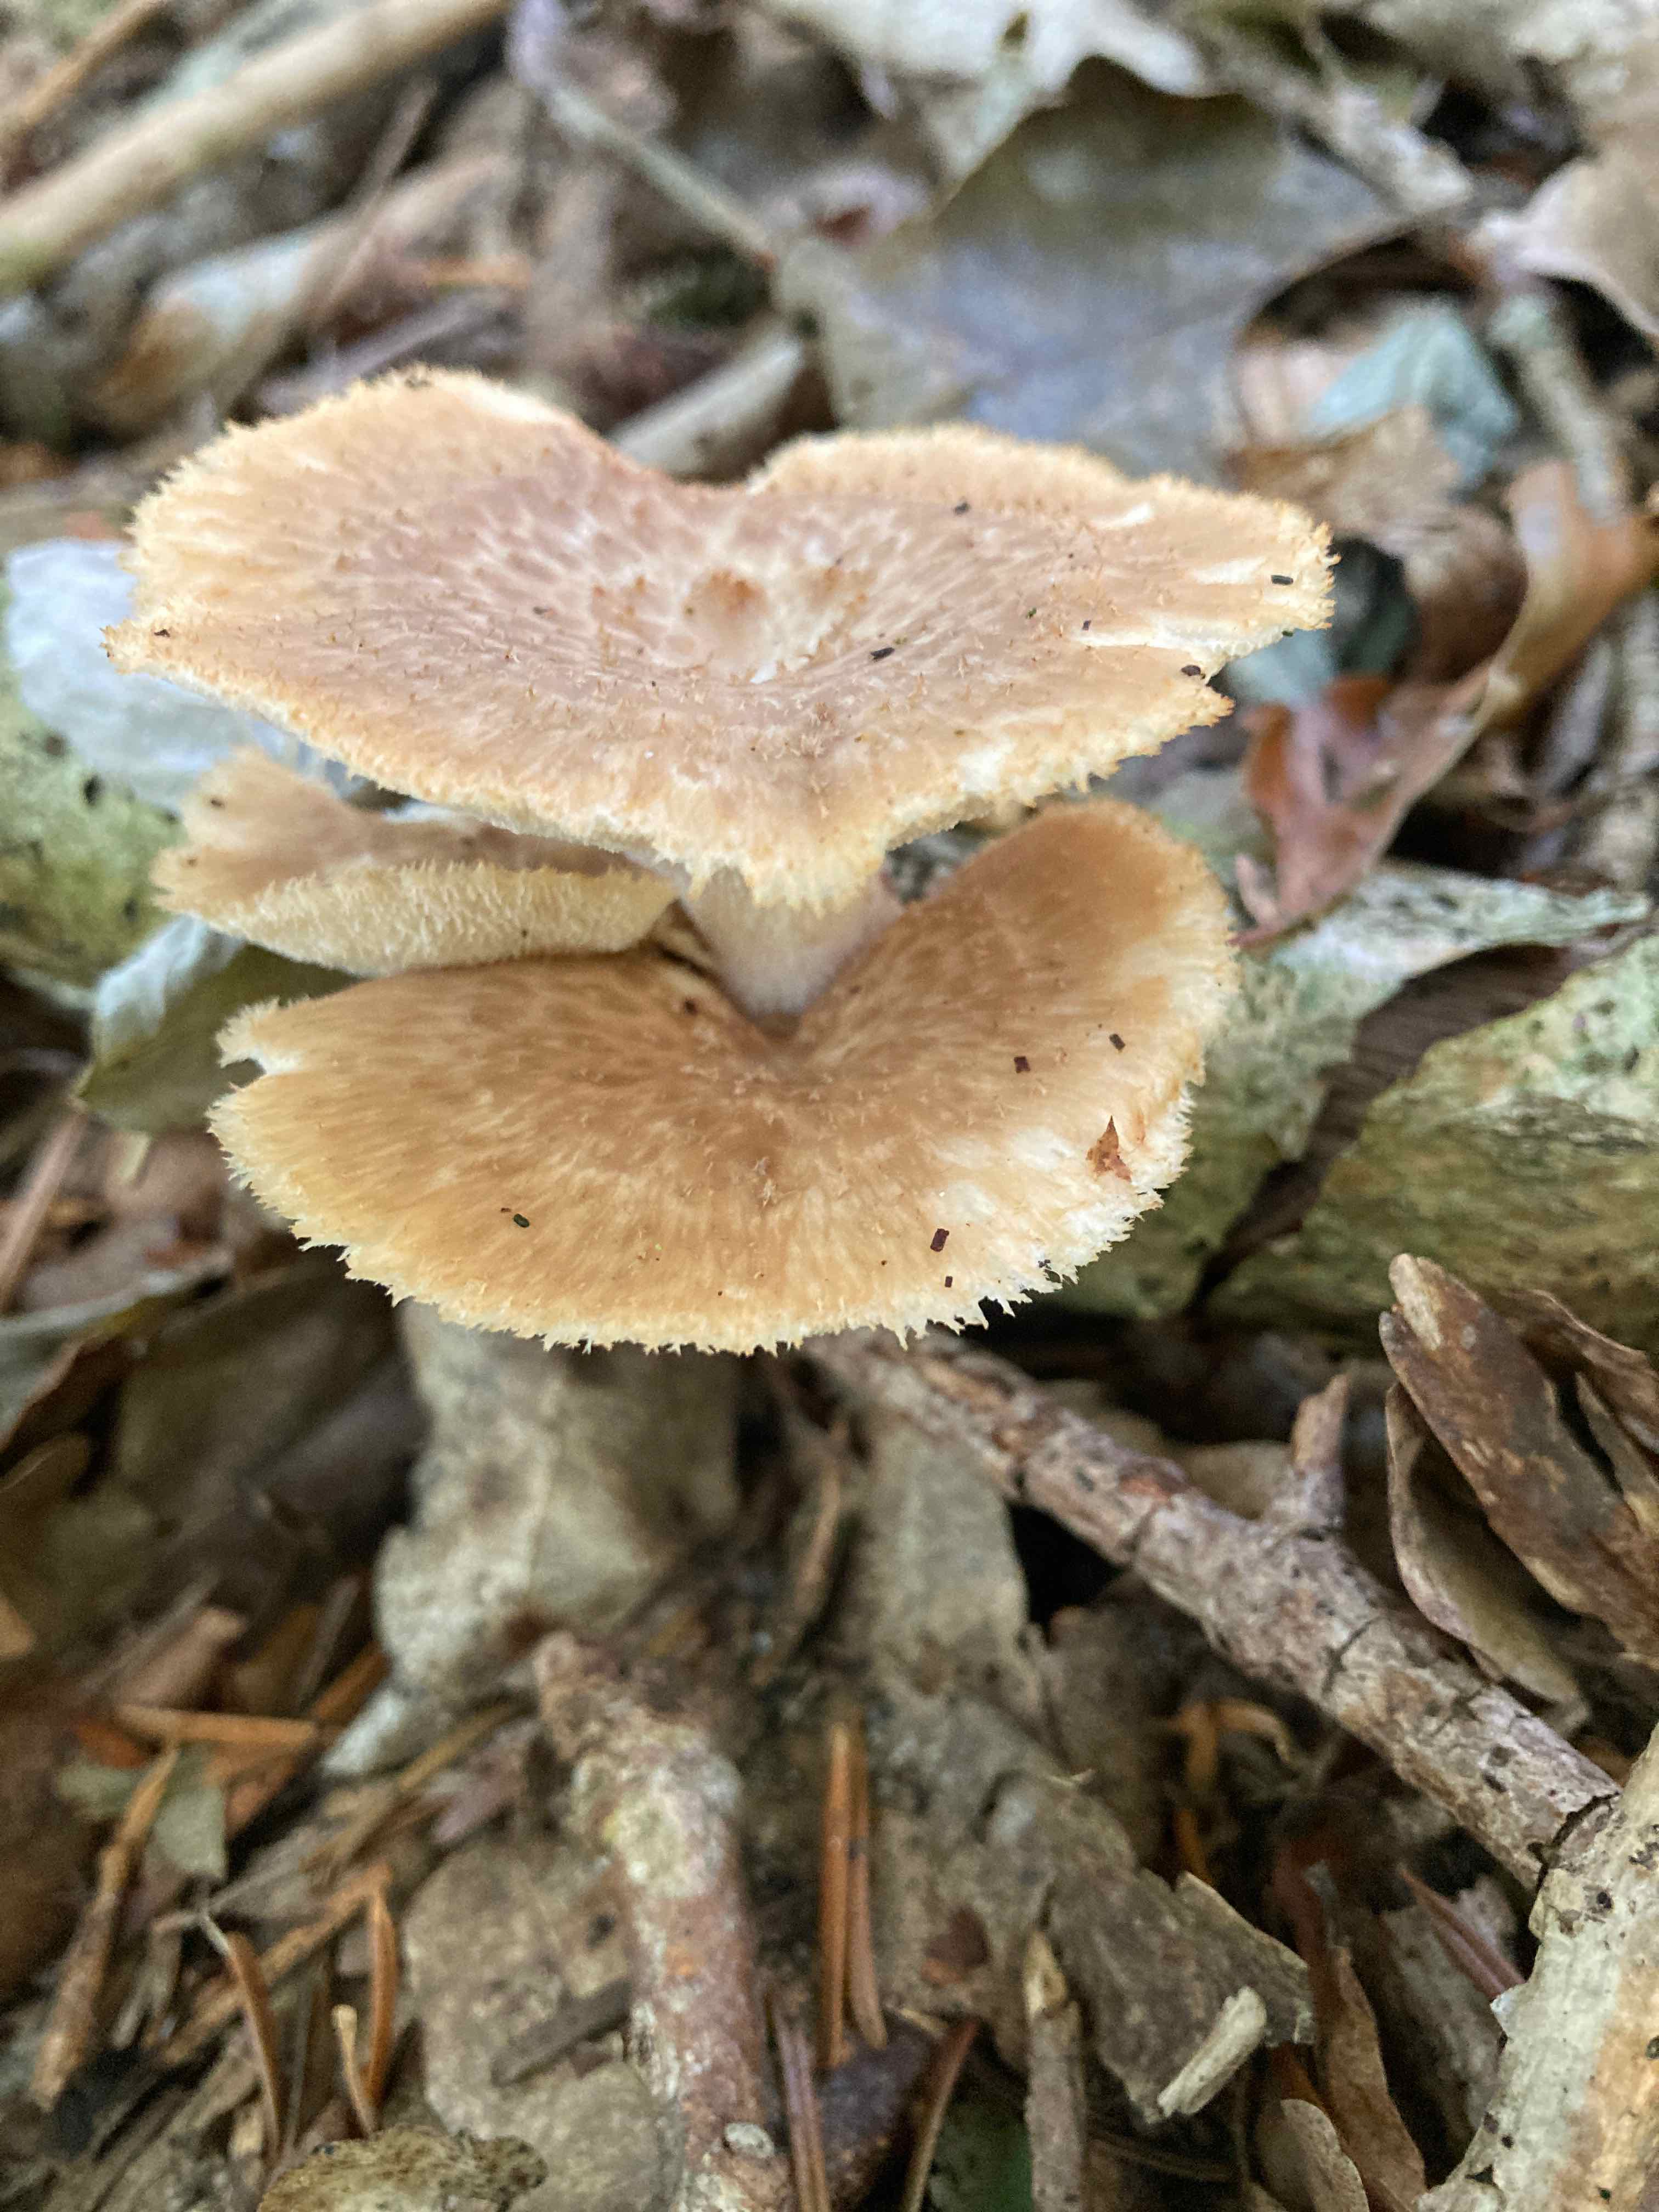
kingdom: Fungi
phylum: Basidiomycota
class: Agaricomycetes
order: Polyporales
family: Polyporaceae
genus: Polyporus
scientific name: Polyporus tuberaster
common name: knoldet stilkporesvamp
